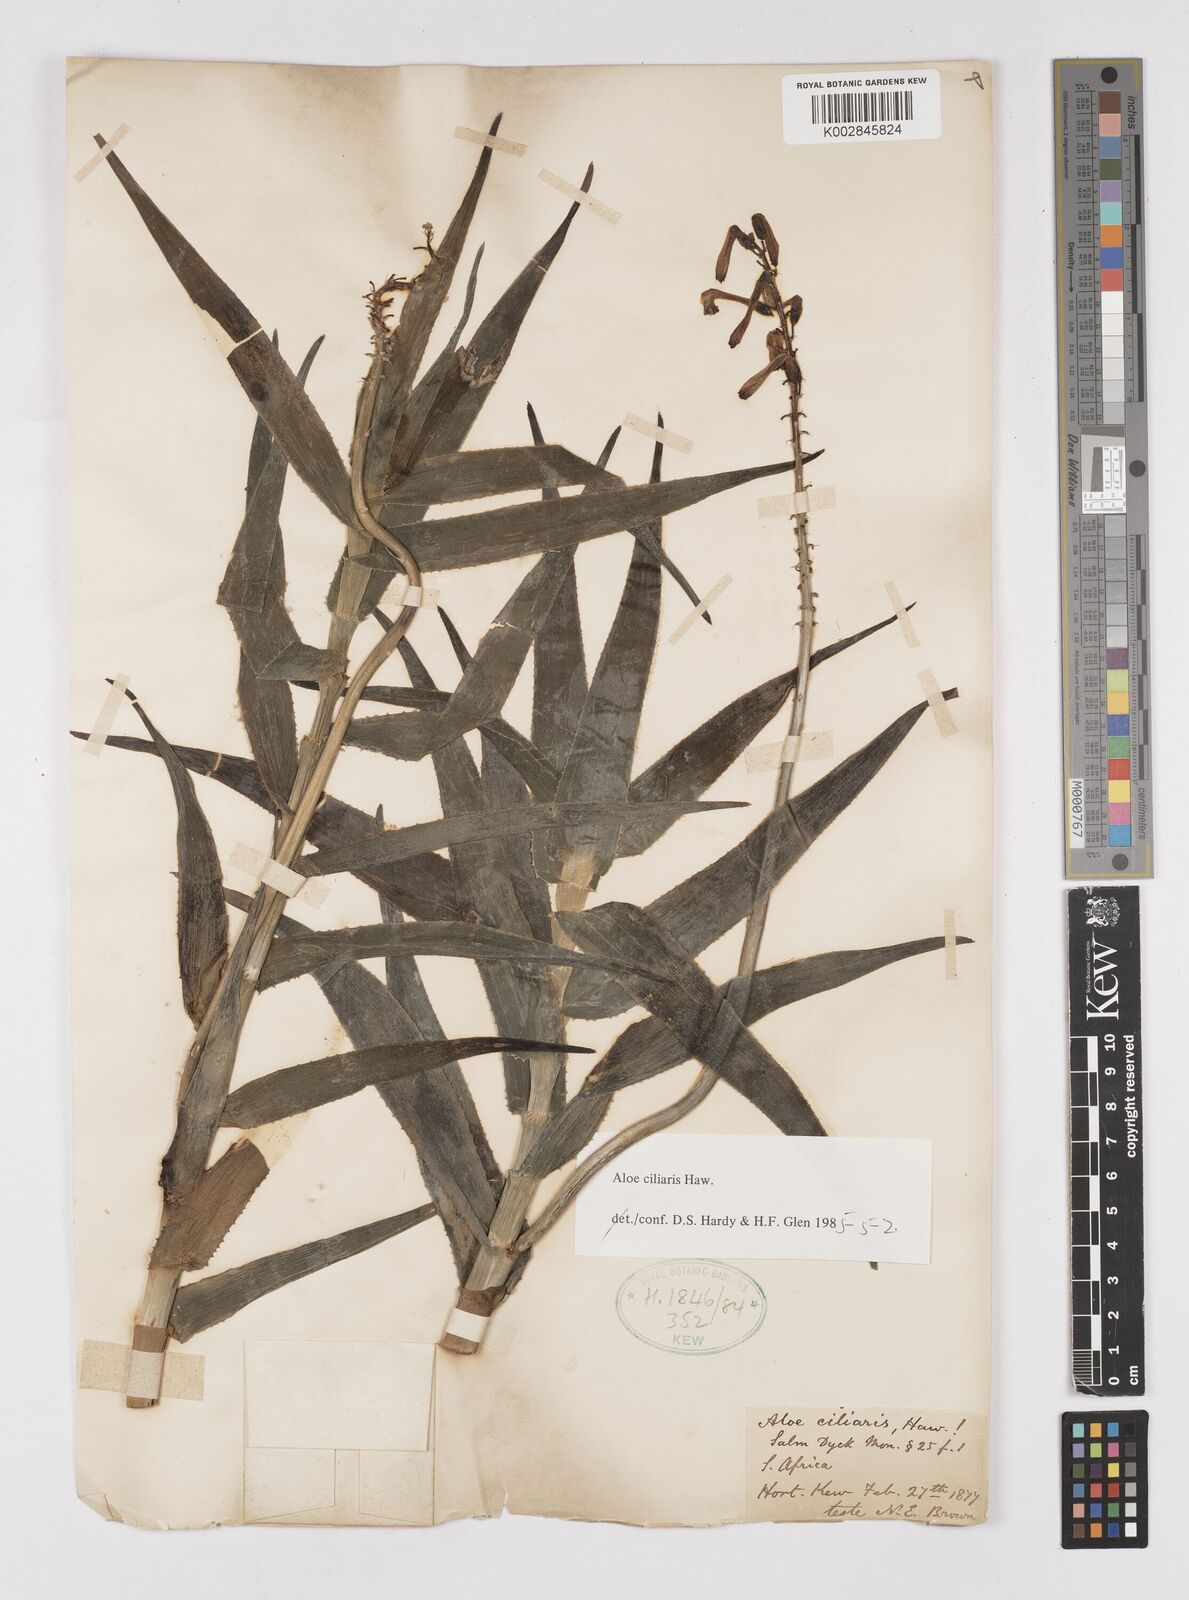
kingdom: Plantae
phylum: Tracheophyta
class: Liliopsida
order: Asparagales
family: Asphodelaceae
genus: Aloiampelos
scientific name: Aloiampelos ciliaris
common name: Climbing aloe
